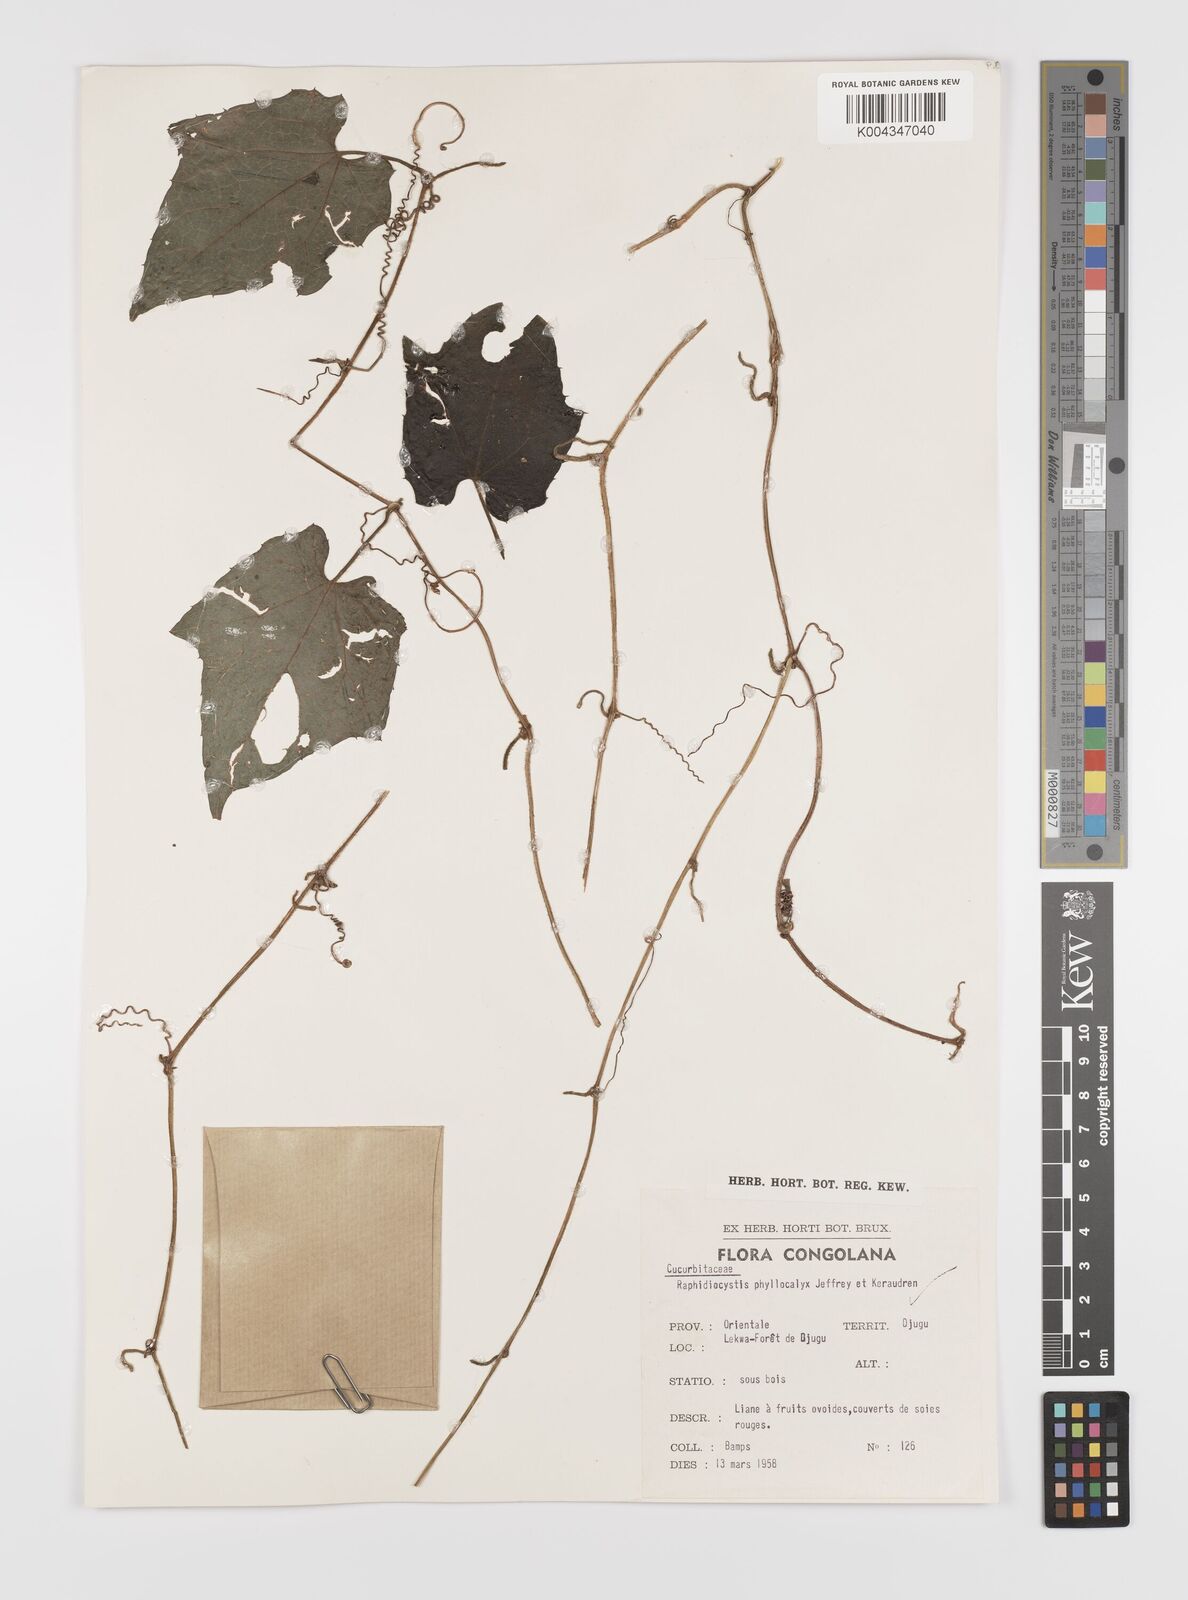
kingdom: Plantae
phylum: Tracheophyta
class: Magnoliopsida
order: Cucurbitales
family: Cucurbitaceae
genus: Raphidiocystis
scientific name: Raphidiocystis phyllocalyx
